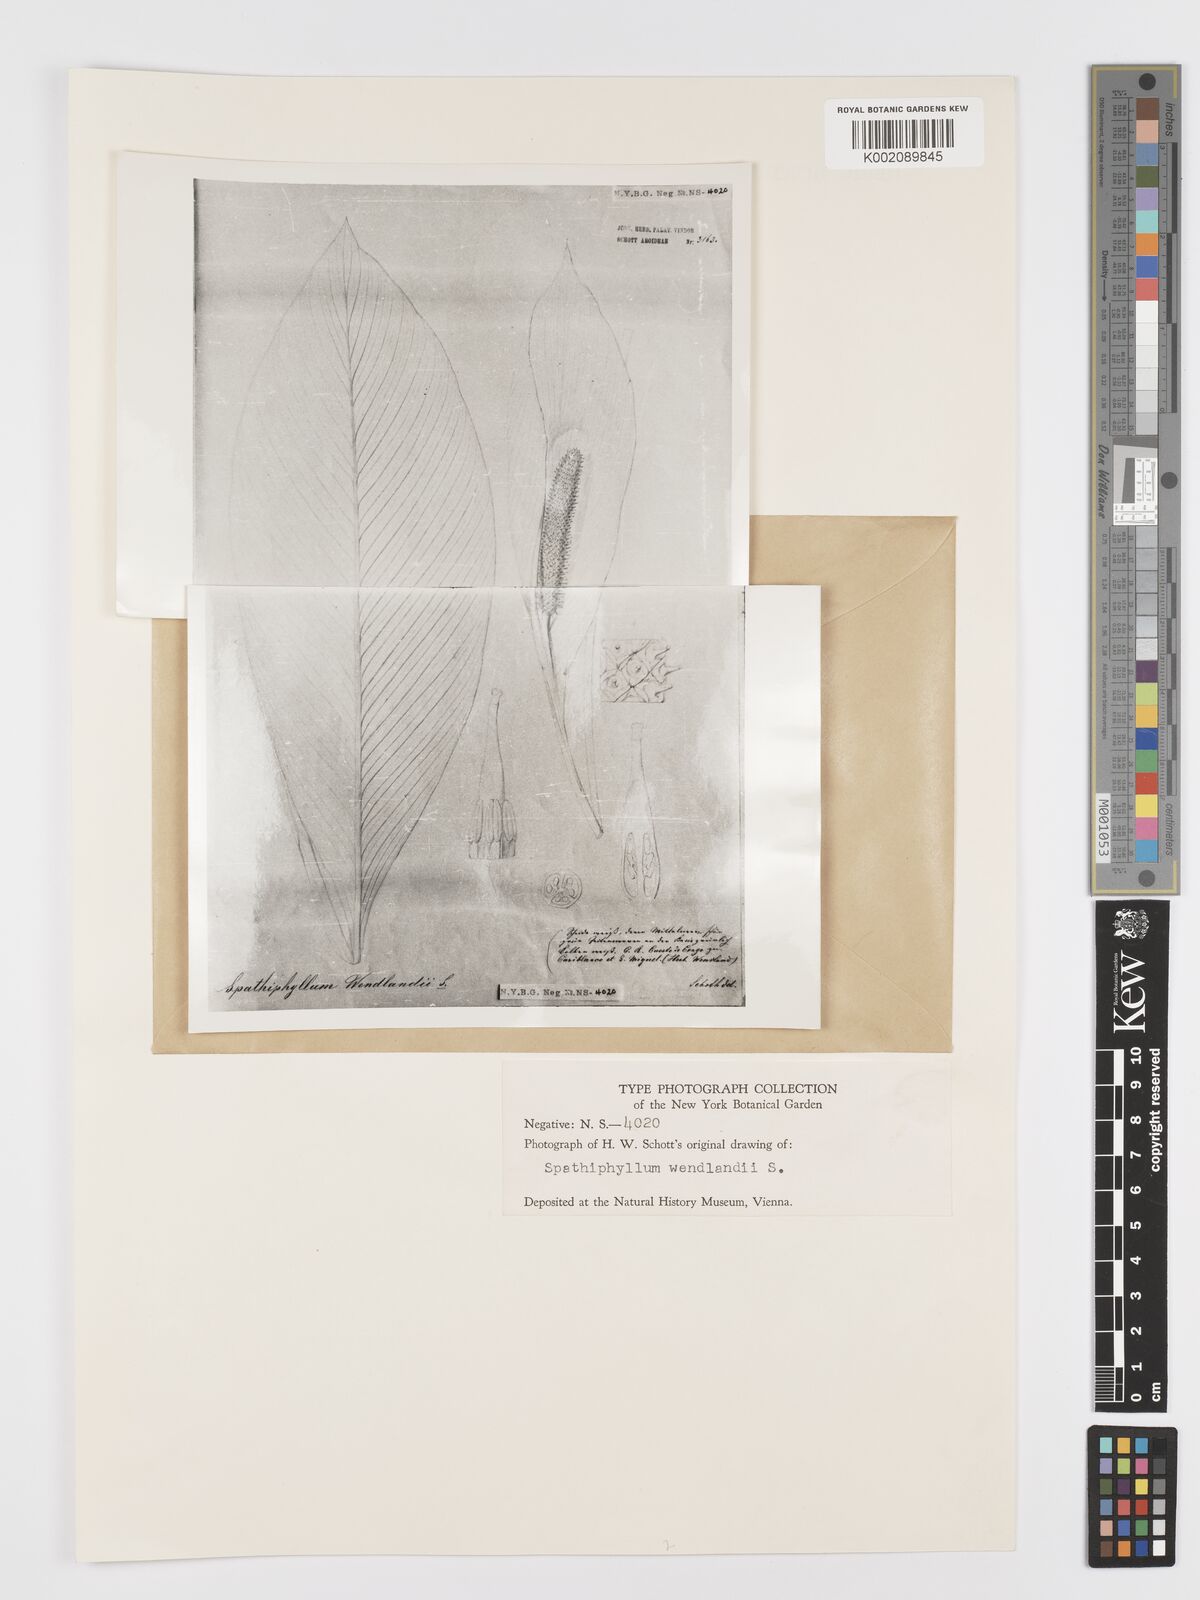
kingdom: Plantae
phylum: Tracheophyta
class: Liliopsida
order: Alismatales
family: Araceae
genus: Spathiphyllum
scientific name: Spathiphyllum wendlandii
